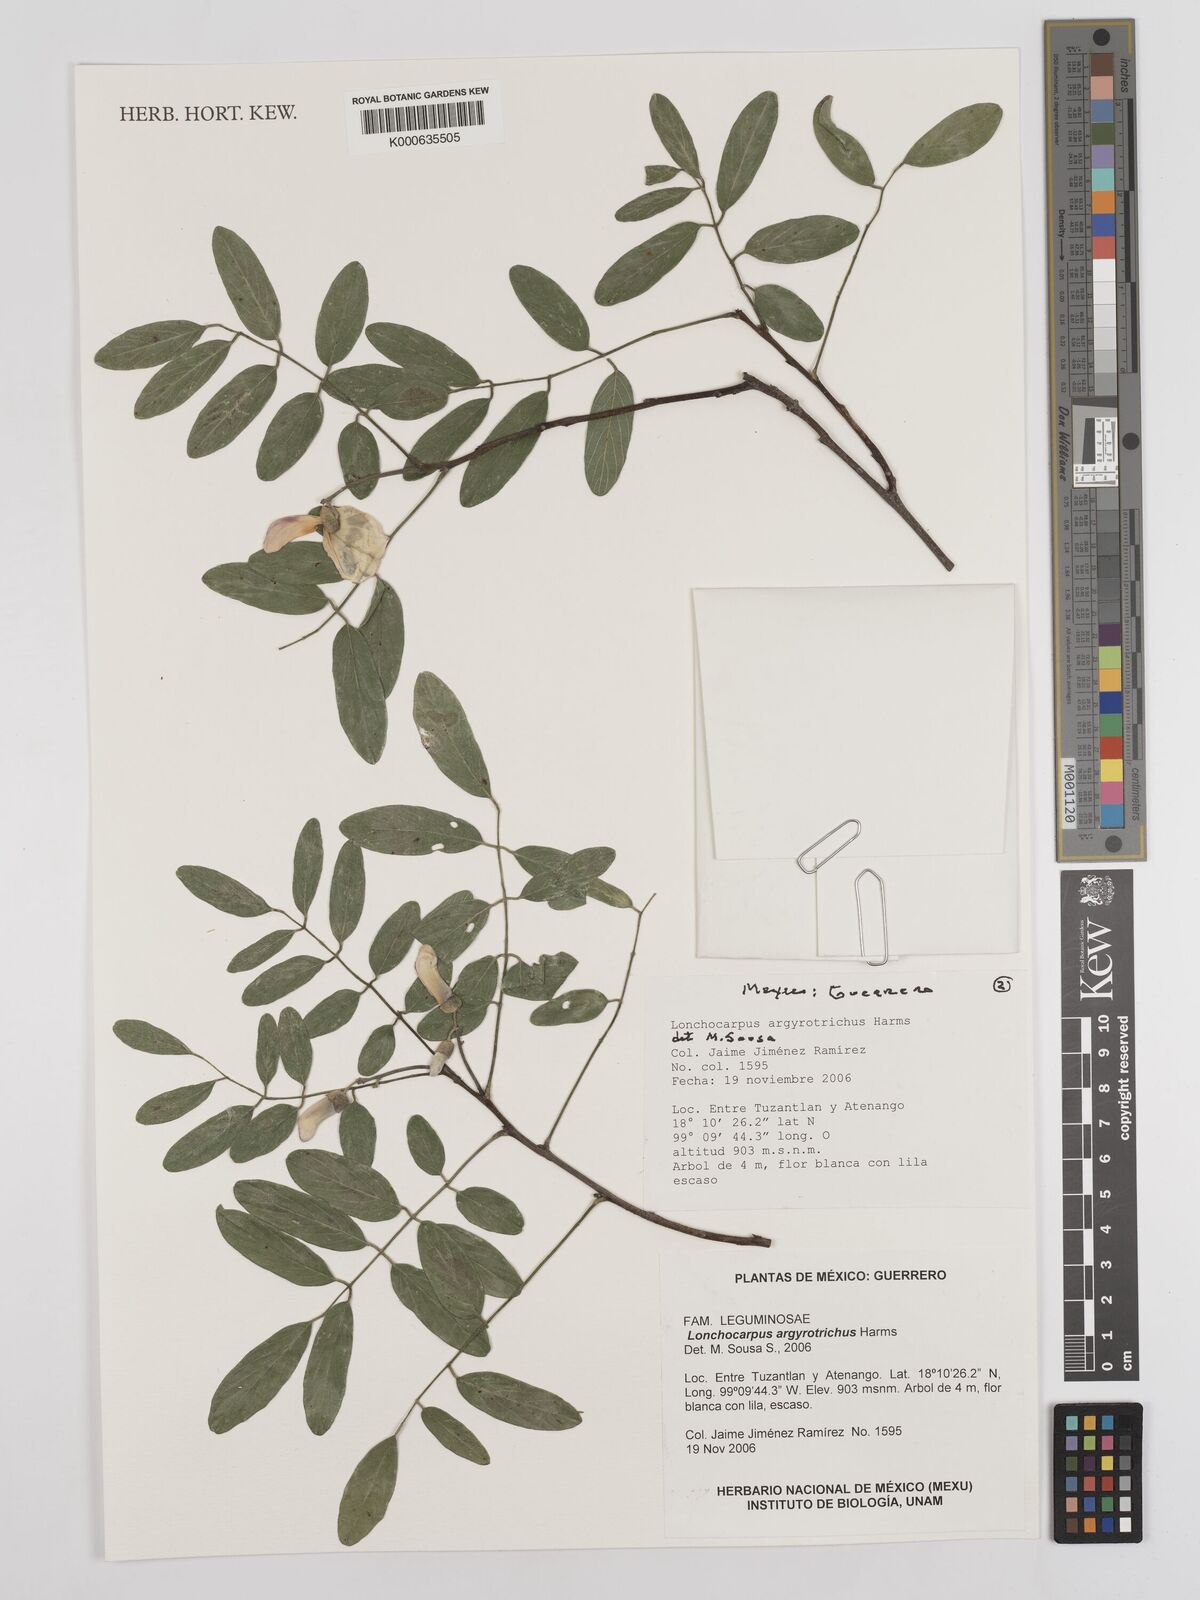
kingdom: Plantae
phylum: Tracheophyta
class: Magnoliopsida
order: Fabales
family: Fabaceae
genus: Lonchocarpus
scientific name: Lonchocarpus argyrotrichus
